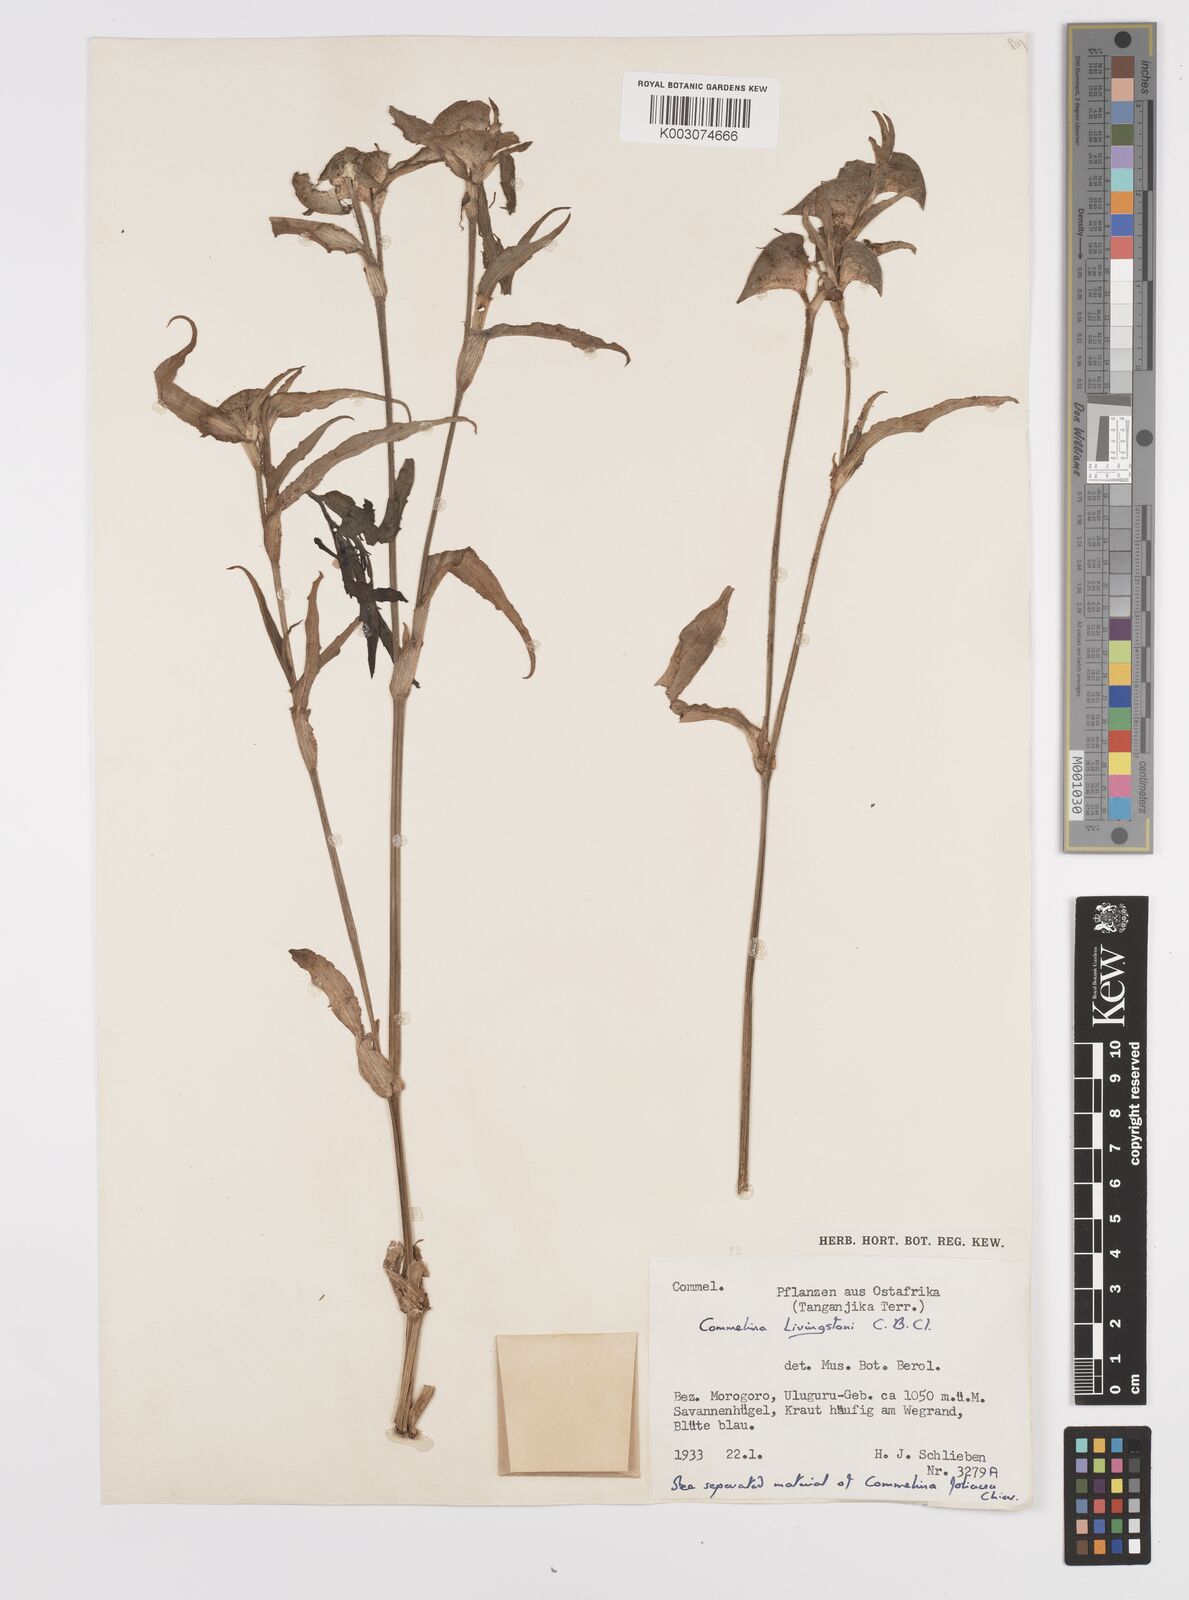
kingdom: Plantae
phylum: Tracheophyta
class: Liliopsida
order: Commelinales
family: Commelinaceae
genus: Commelina
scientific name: Commelina erecta
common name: Blousel blommetjie
